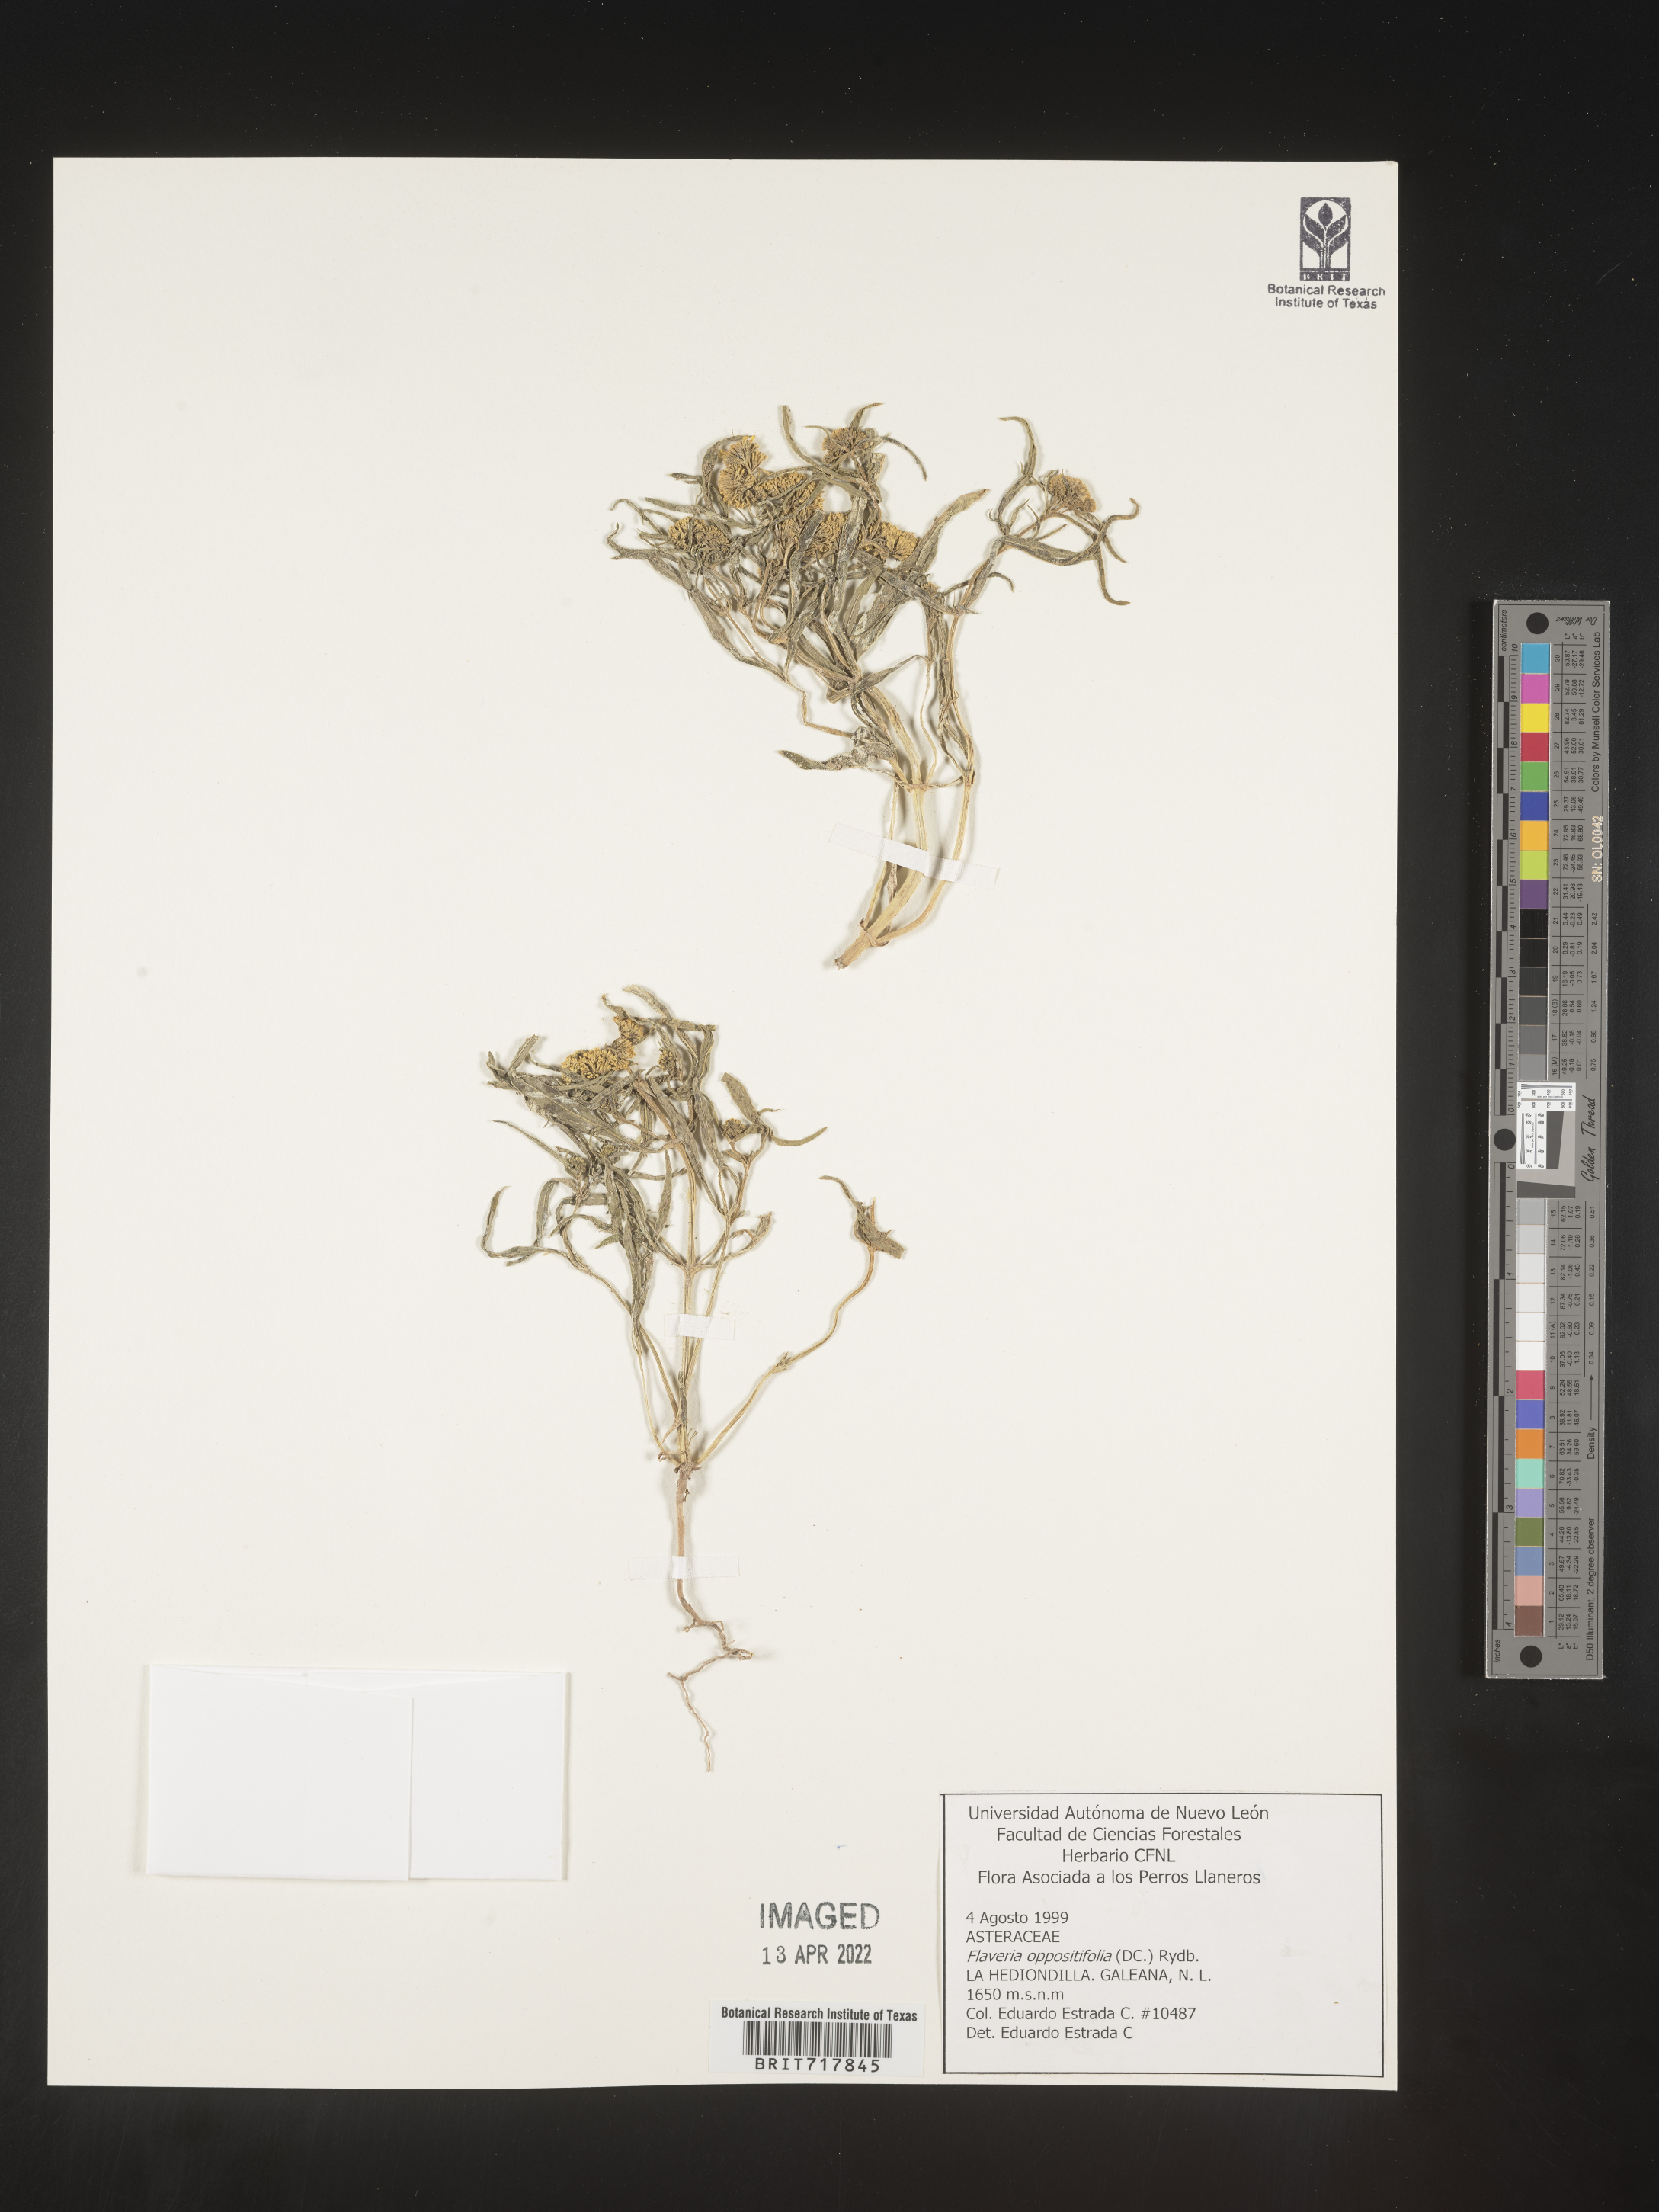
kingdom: Plantae
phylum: Tracheophyta
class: Magnoliopsida
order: Asterales
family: Asteraceae
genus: Flaveria
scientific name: Flaveria
